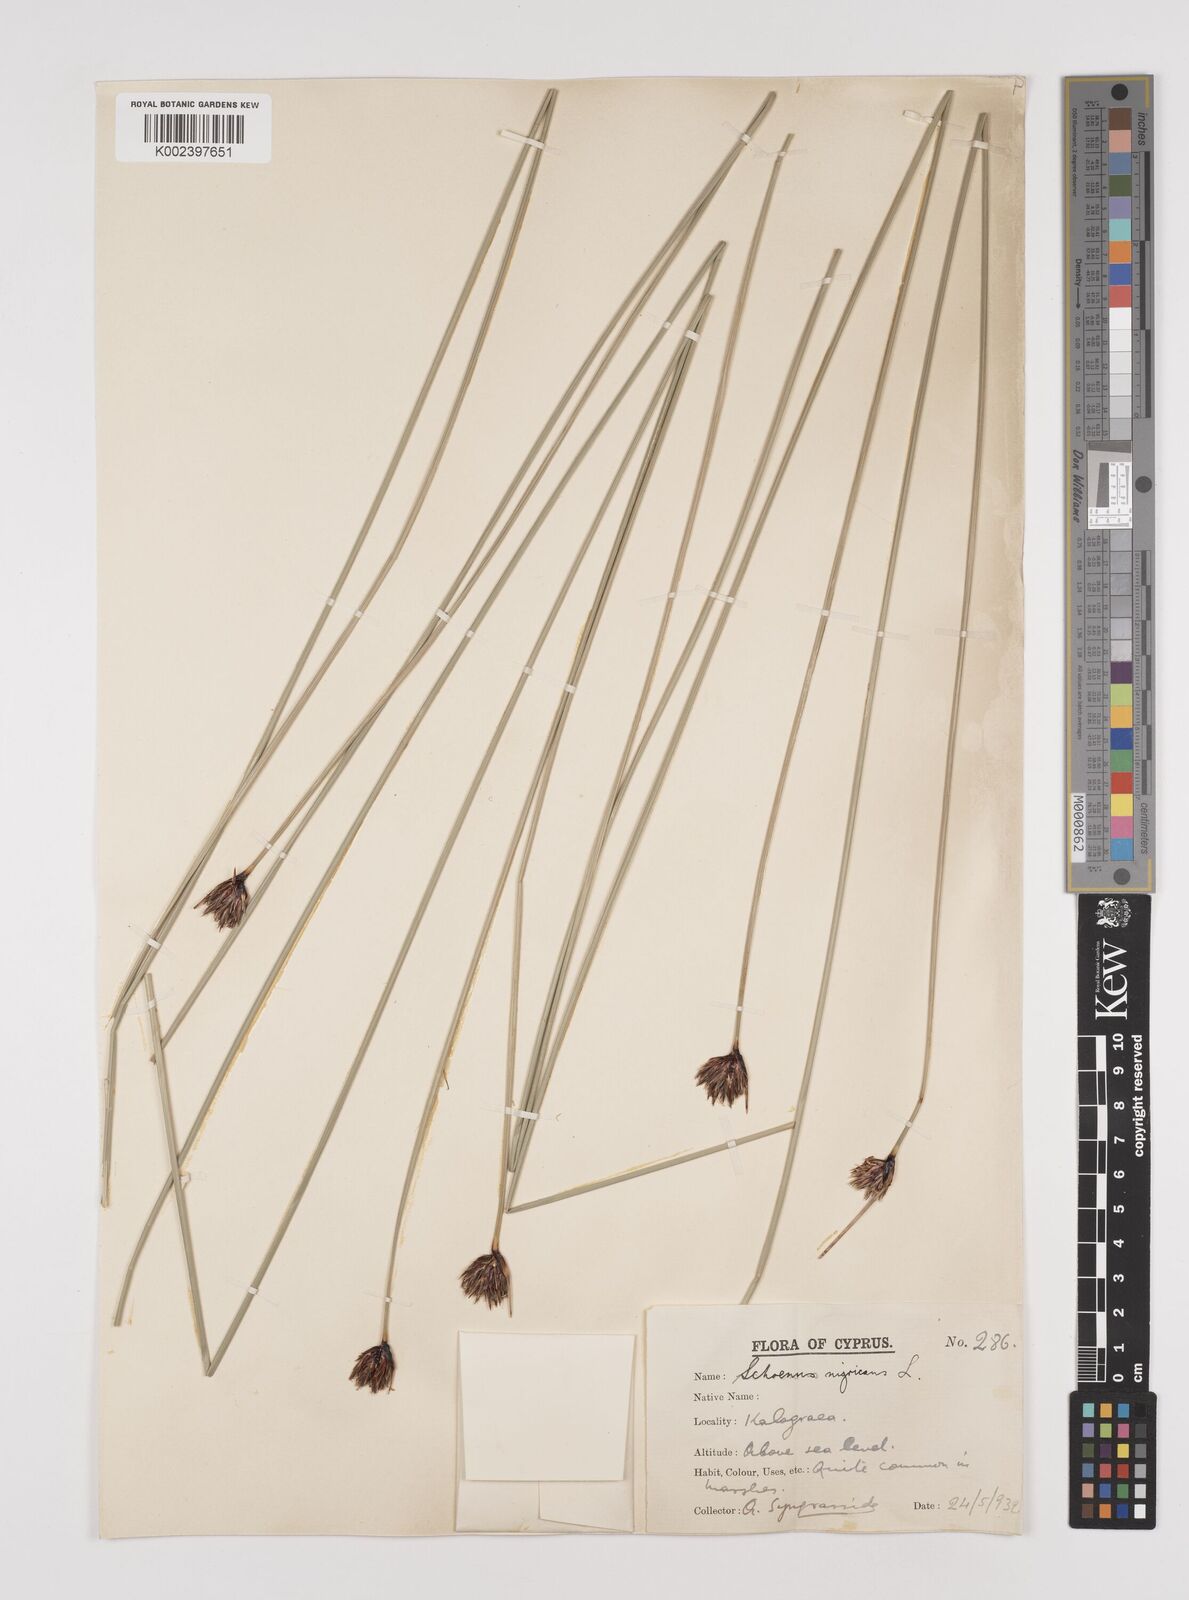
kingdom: Plantae
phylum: Tracheophyta
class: Liliopsida
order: Poales
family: Cyperaceae
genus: Schoenus
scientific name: Schoenus nigricans
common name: Black bog-rush
